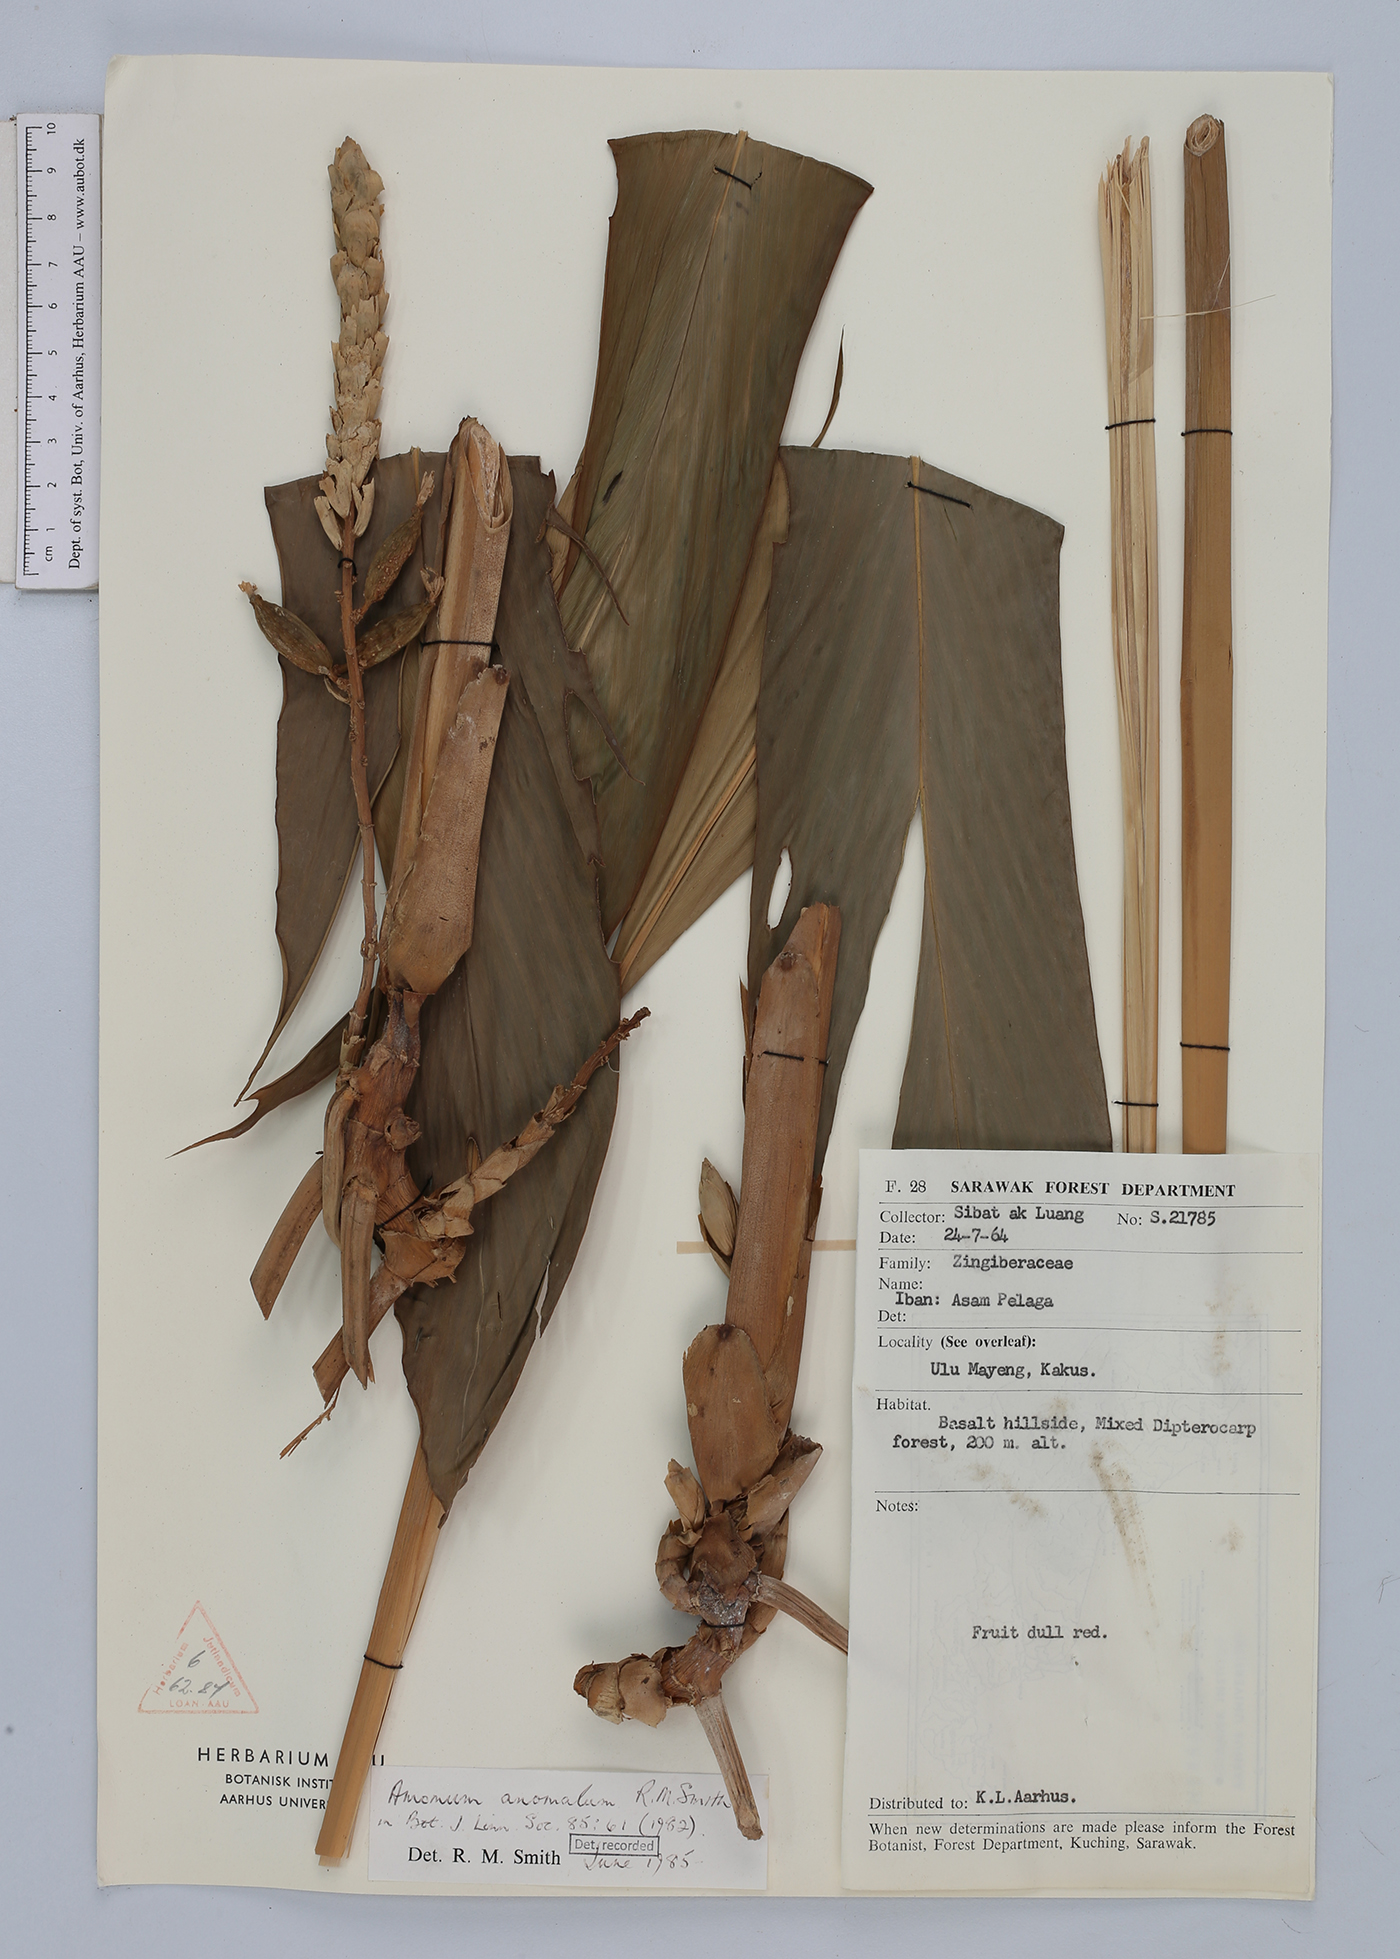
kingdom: Plantae
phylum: Tracheophyta
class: Liliopsida
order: Zingiberales
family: Zingiberaceae
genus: Sulettaria
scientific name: Sulettaria anomala
